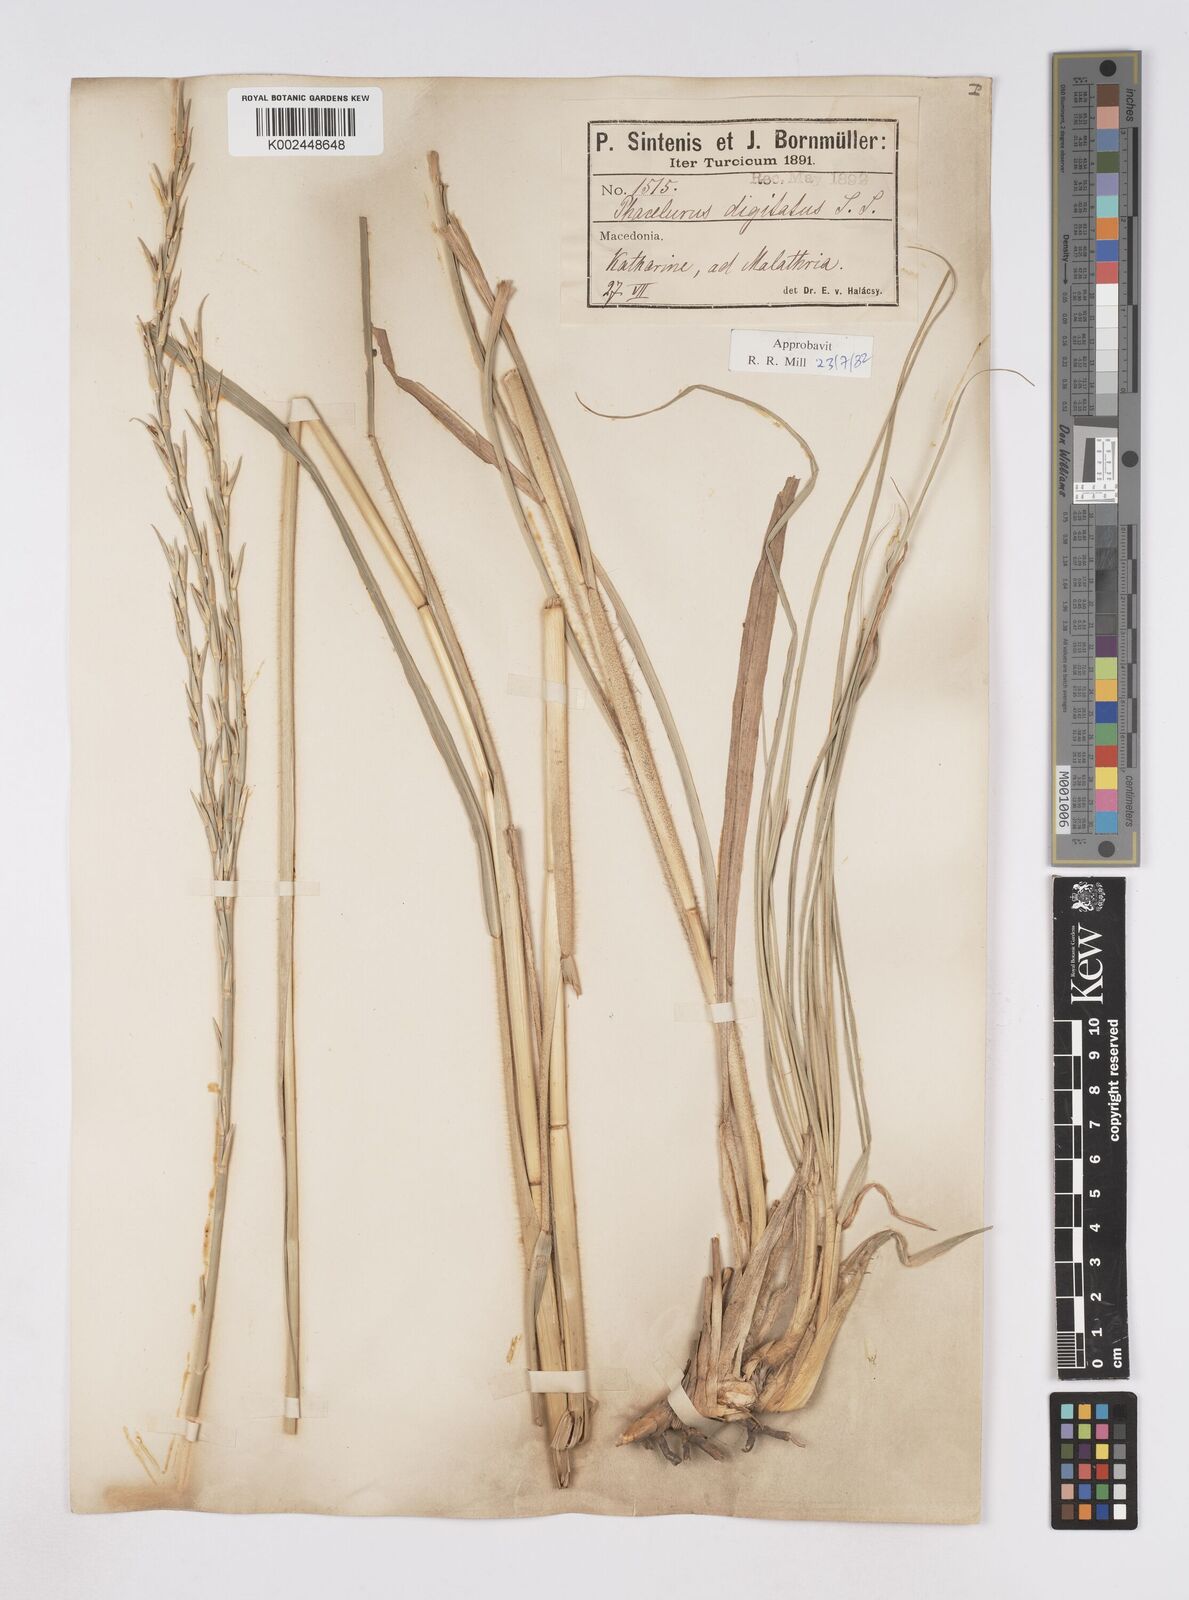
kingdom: Plantae
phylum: Tracheophyta
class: Liliopsida
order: Poales
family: Poaceae
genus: Phacelurus
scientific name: Phacelurus digitatus
